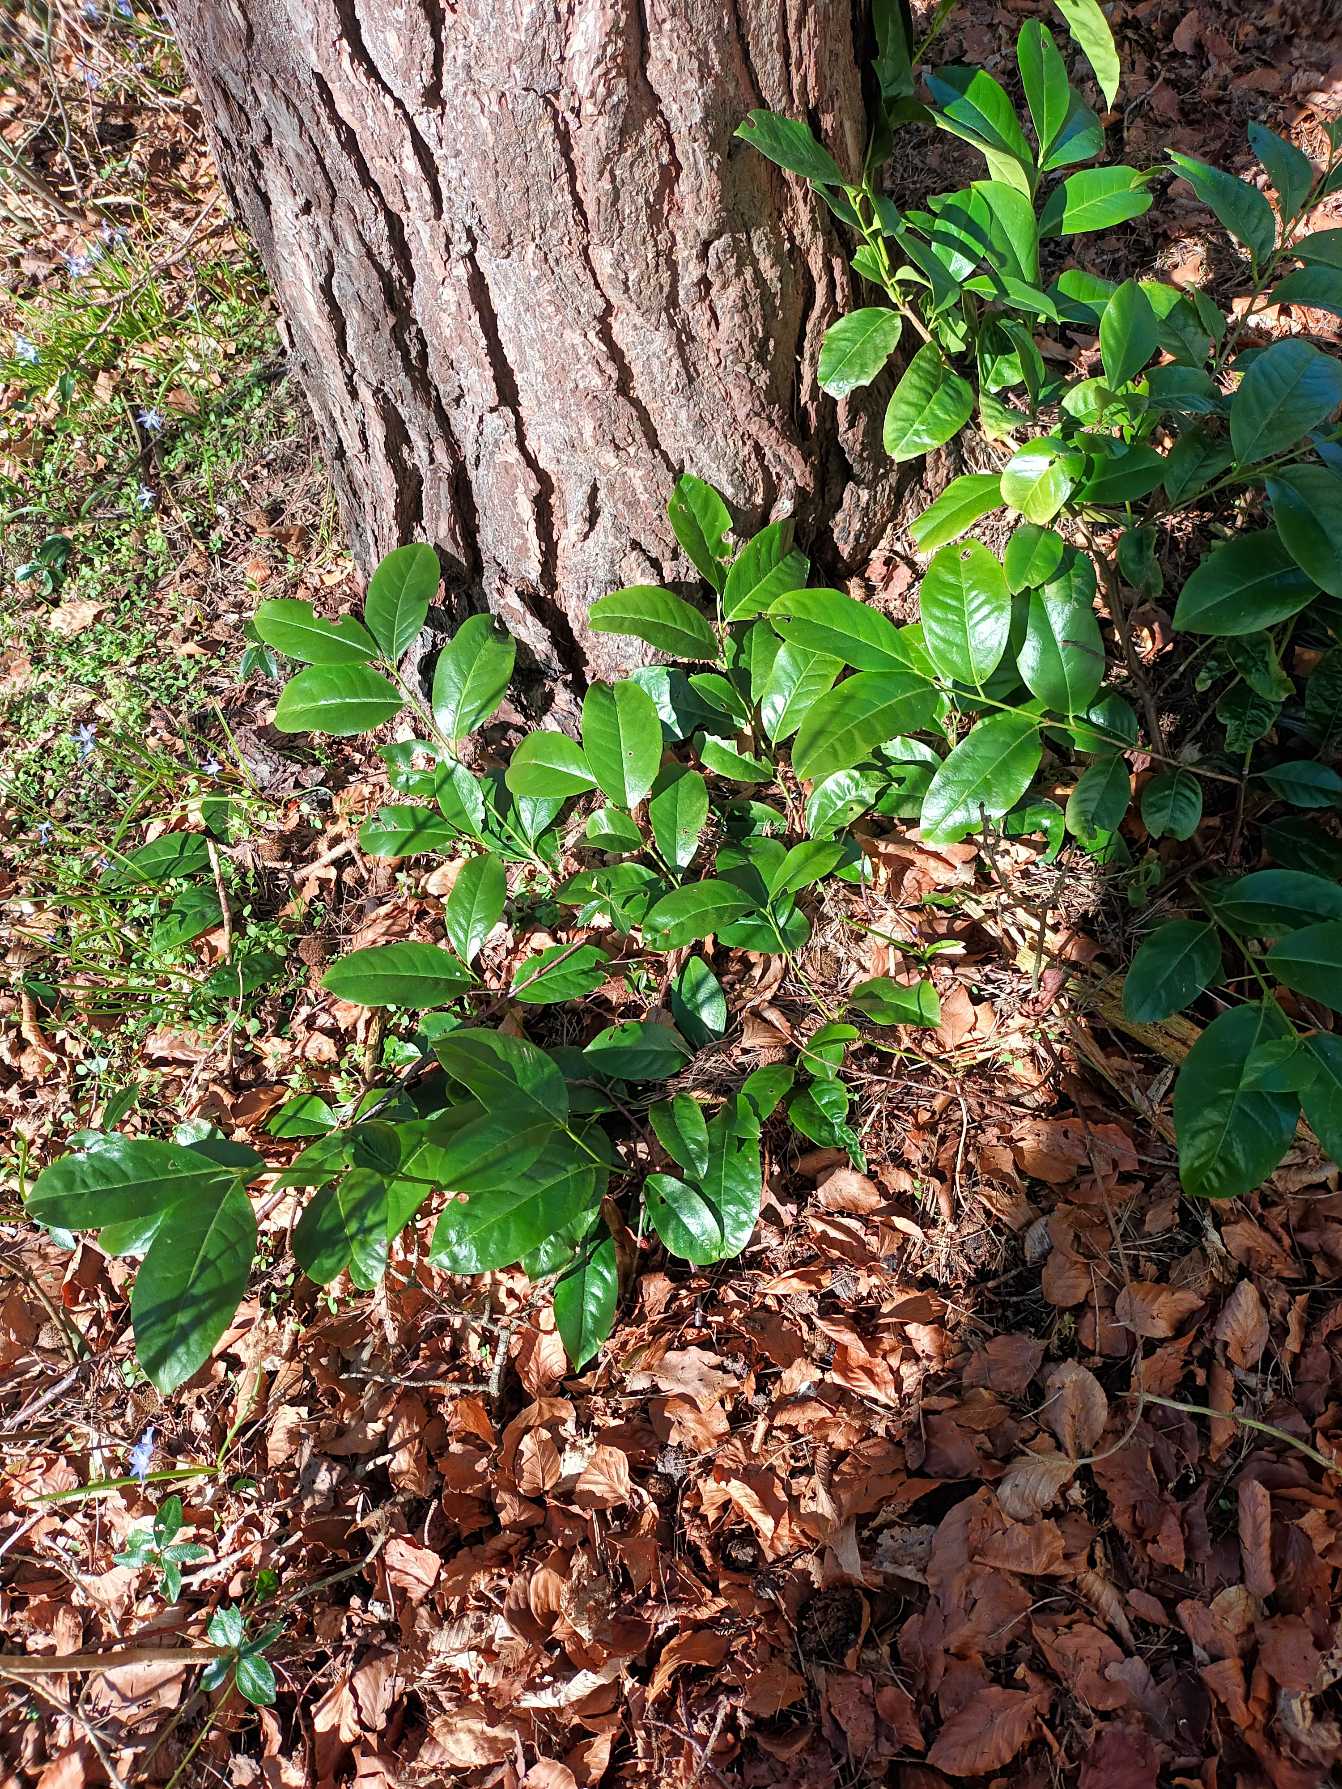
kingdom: Plantae
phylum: Tracheophyta
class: Magnoliopsida
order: Rosales
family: Rosaceae
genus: Prunus
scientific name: Prunus laurocerasus
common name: Laurbærkirsebær
